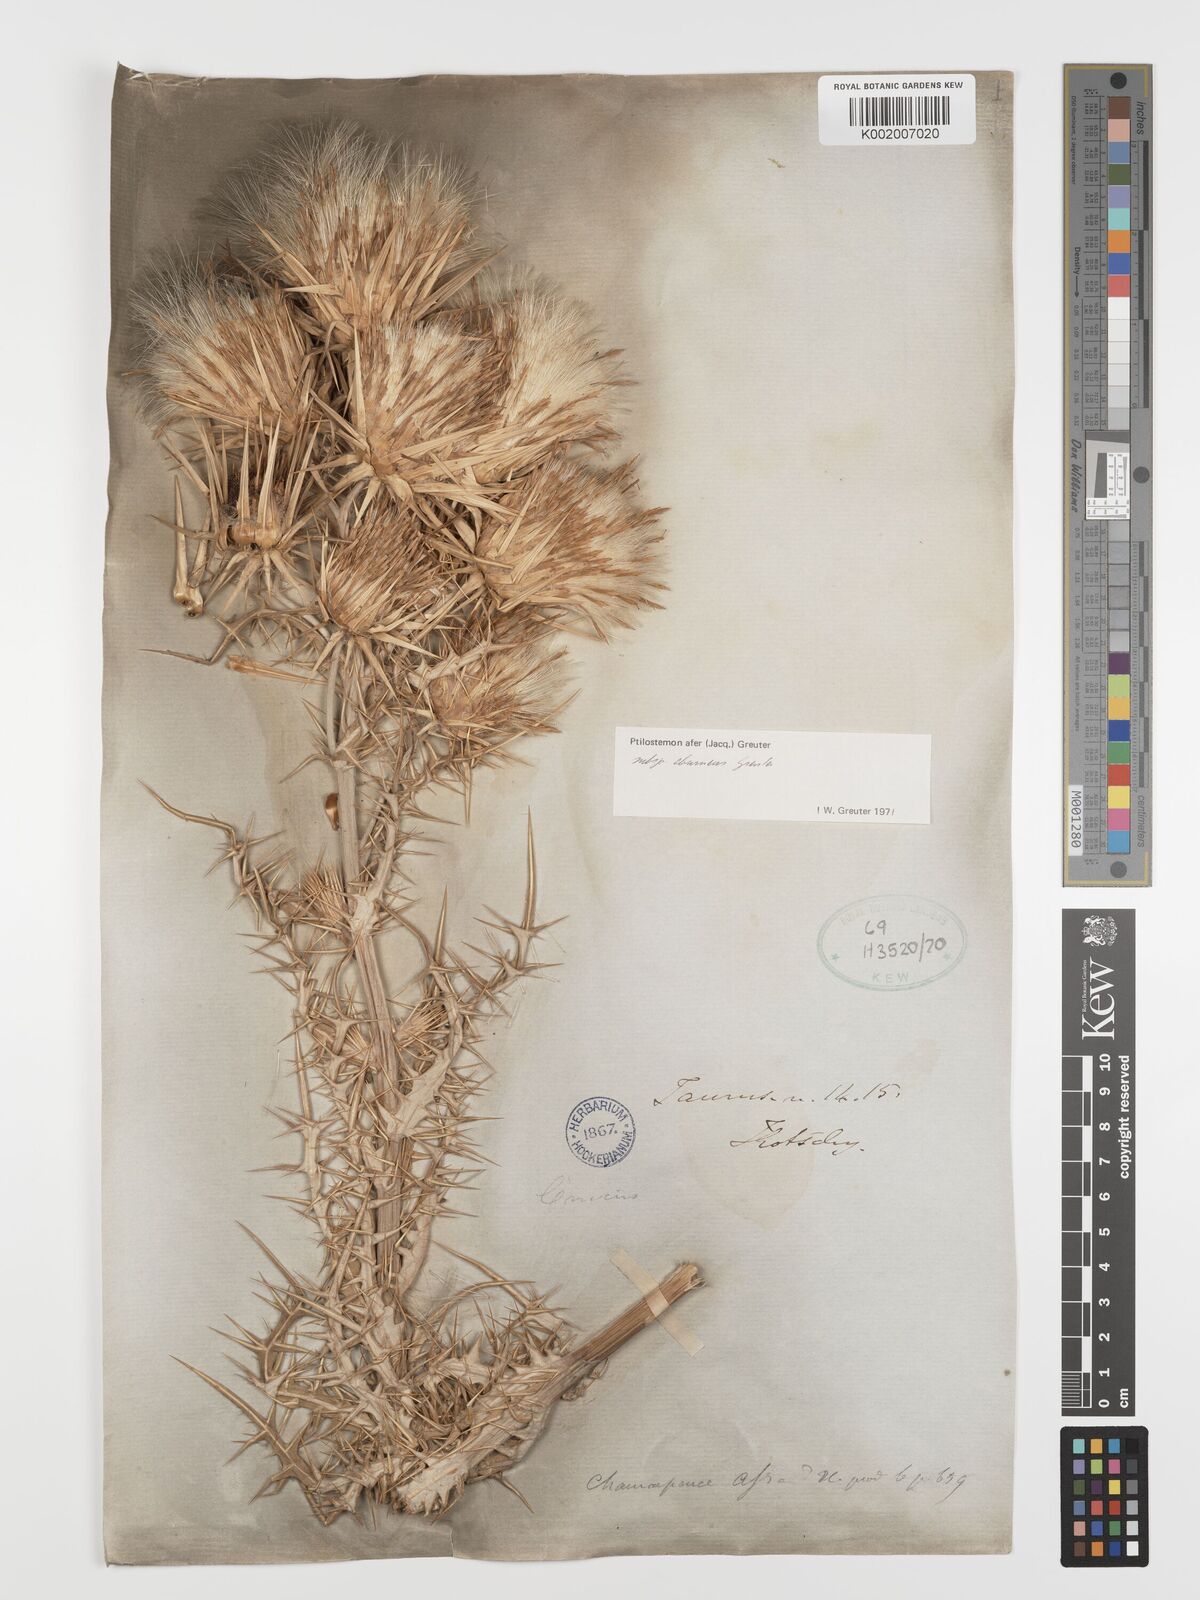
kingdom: Plantae
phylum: Tracheophyta
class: Magnoliopsida
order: Asterales
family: Asteraceae
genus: Ptilostemon
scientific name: Ptilostemon afer
